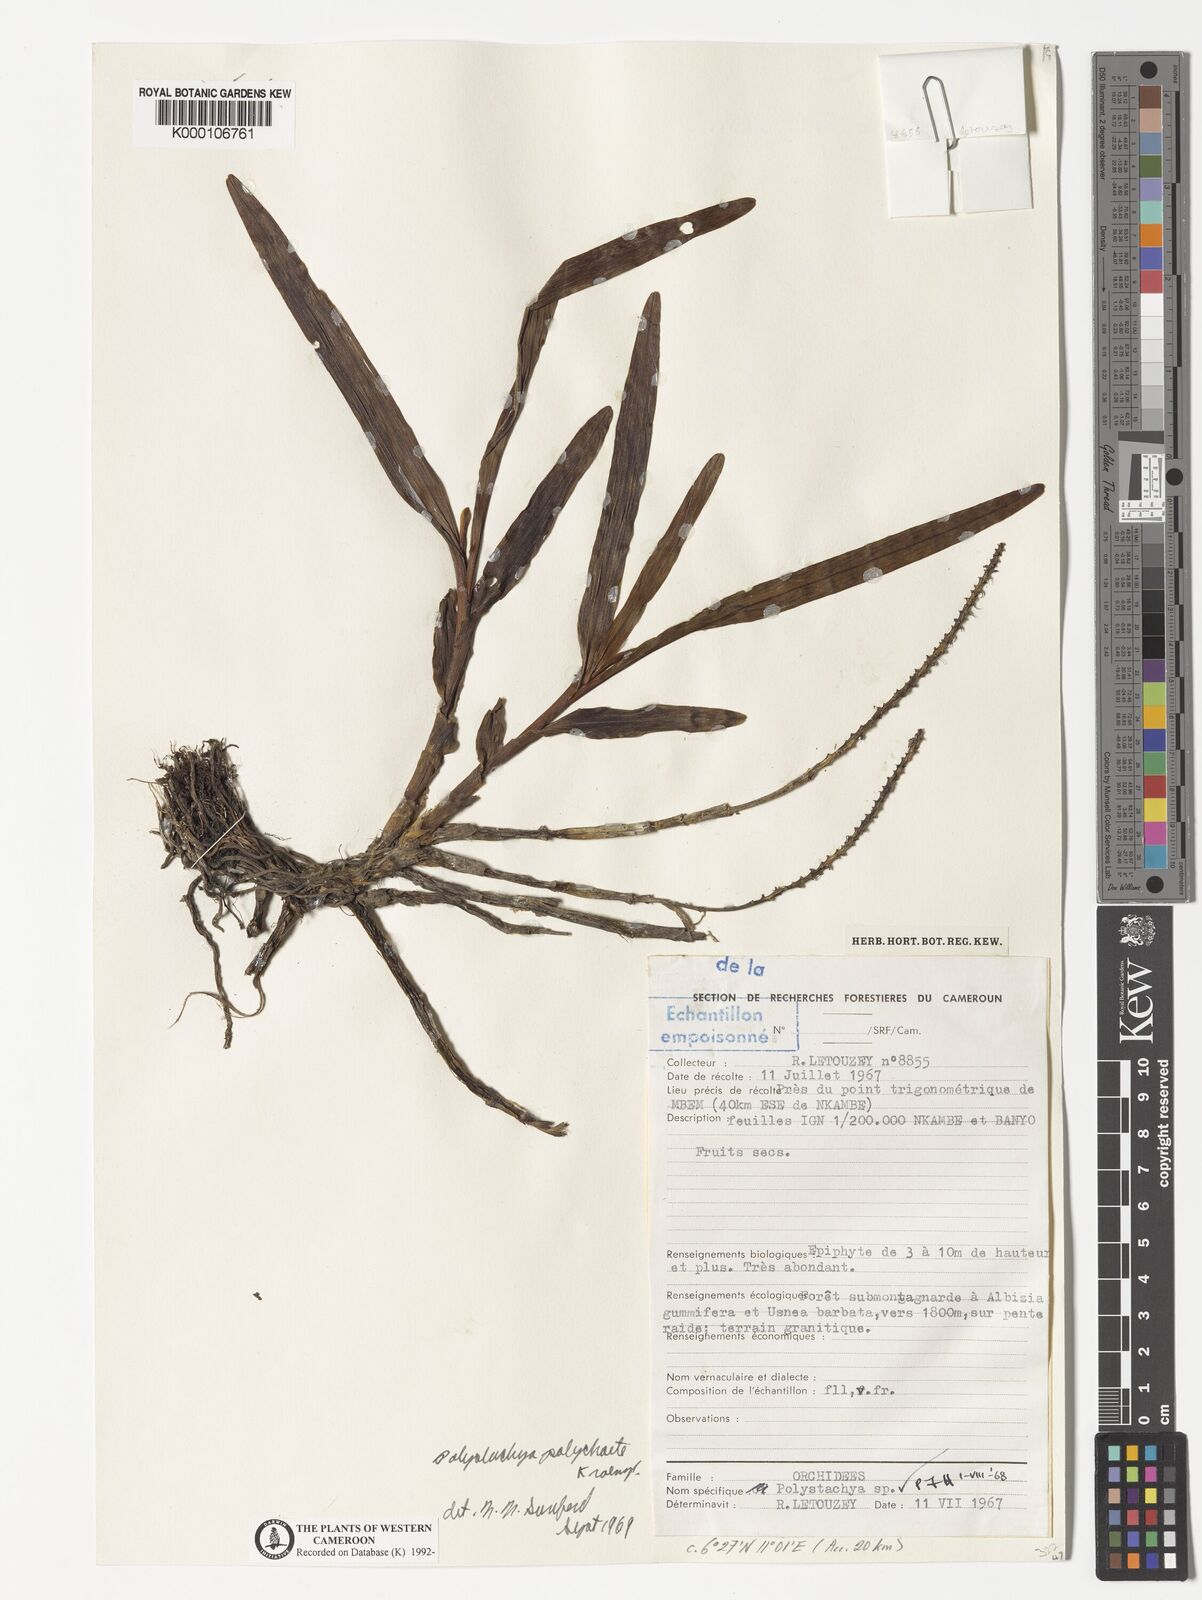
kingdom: Plantae
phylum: Tracheophyta
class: Liliopsida
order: Asparagales
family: Orchidaceae
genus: Polystachya
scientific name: Polystachya polychaete
